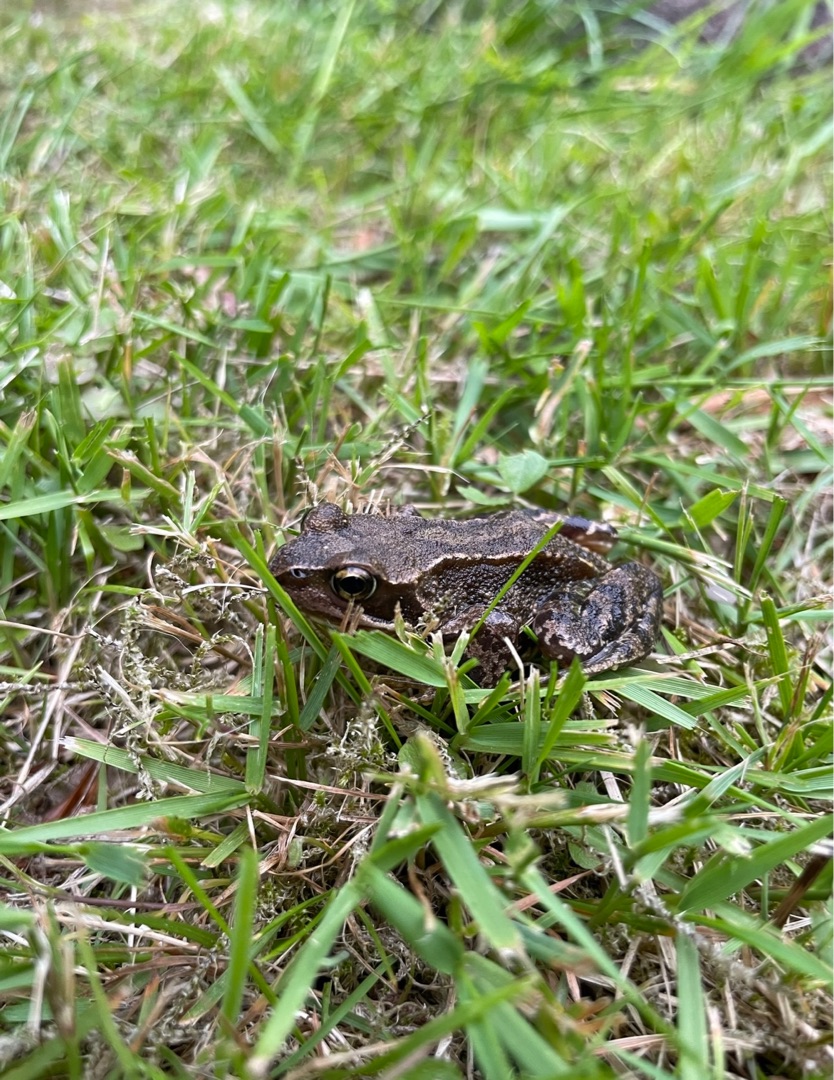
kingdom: Animalia
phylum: Chordata
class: Amphibia
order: Anura
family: Ranidae
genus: Rana
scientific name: Rana temporaria
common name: Butsnudet frø
